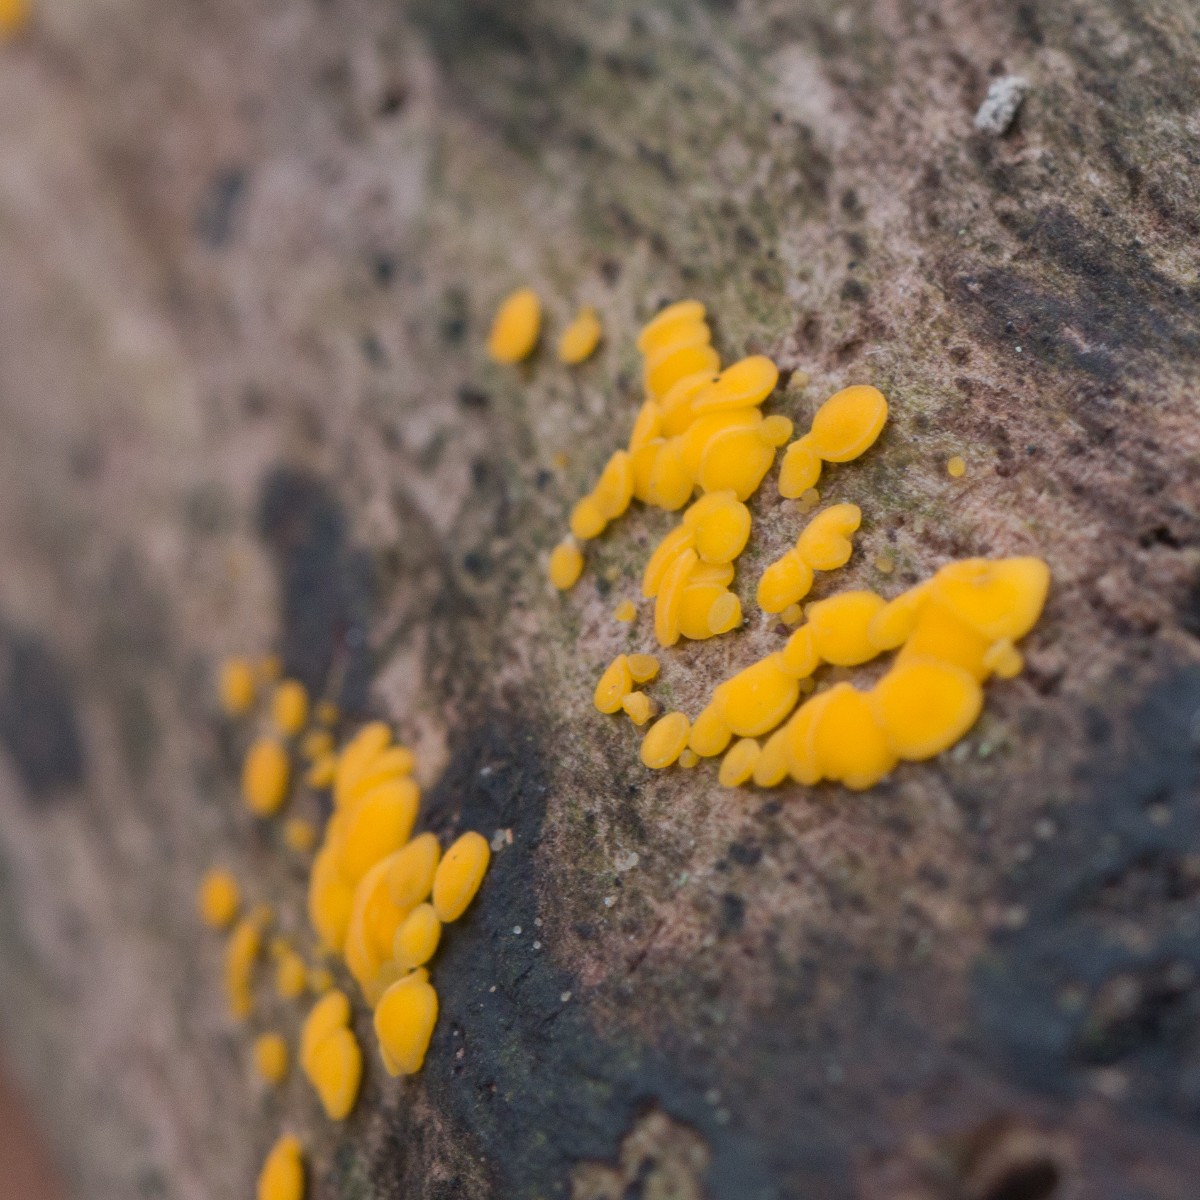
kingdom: Fungi
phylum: Ascomycota
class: Leotiomycetes
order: Helotiales
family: Pezizellaceae
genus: Calycina
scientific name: Calycina citrina
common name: almindelig gulskive
